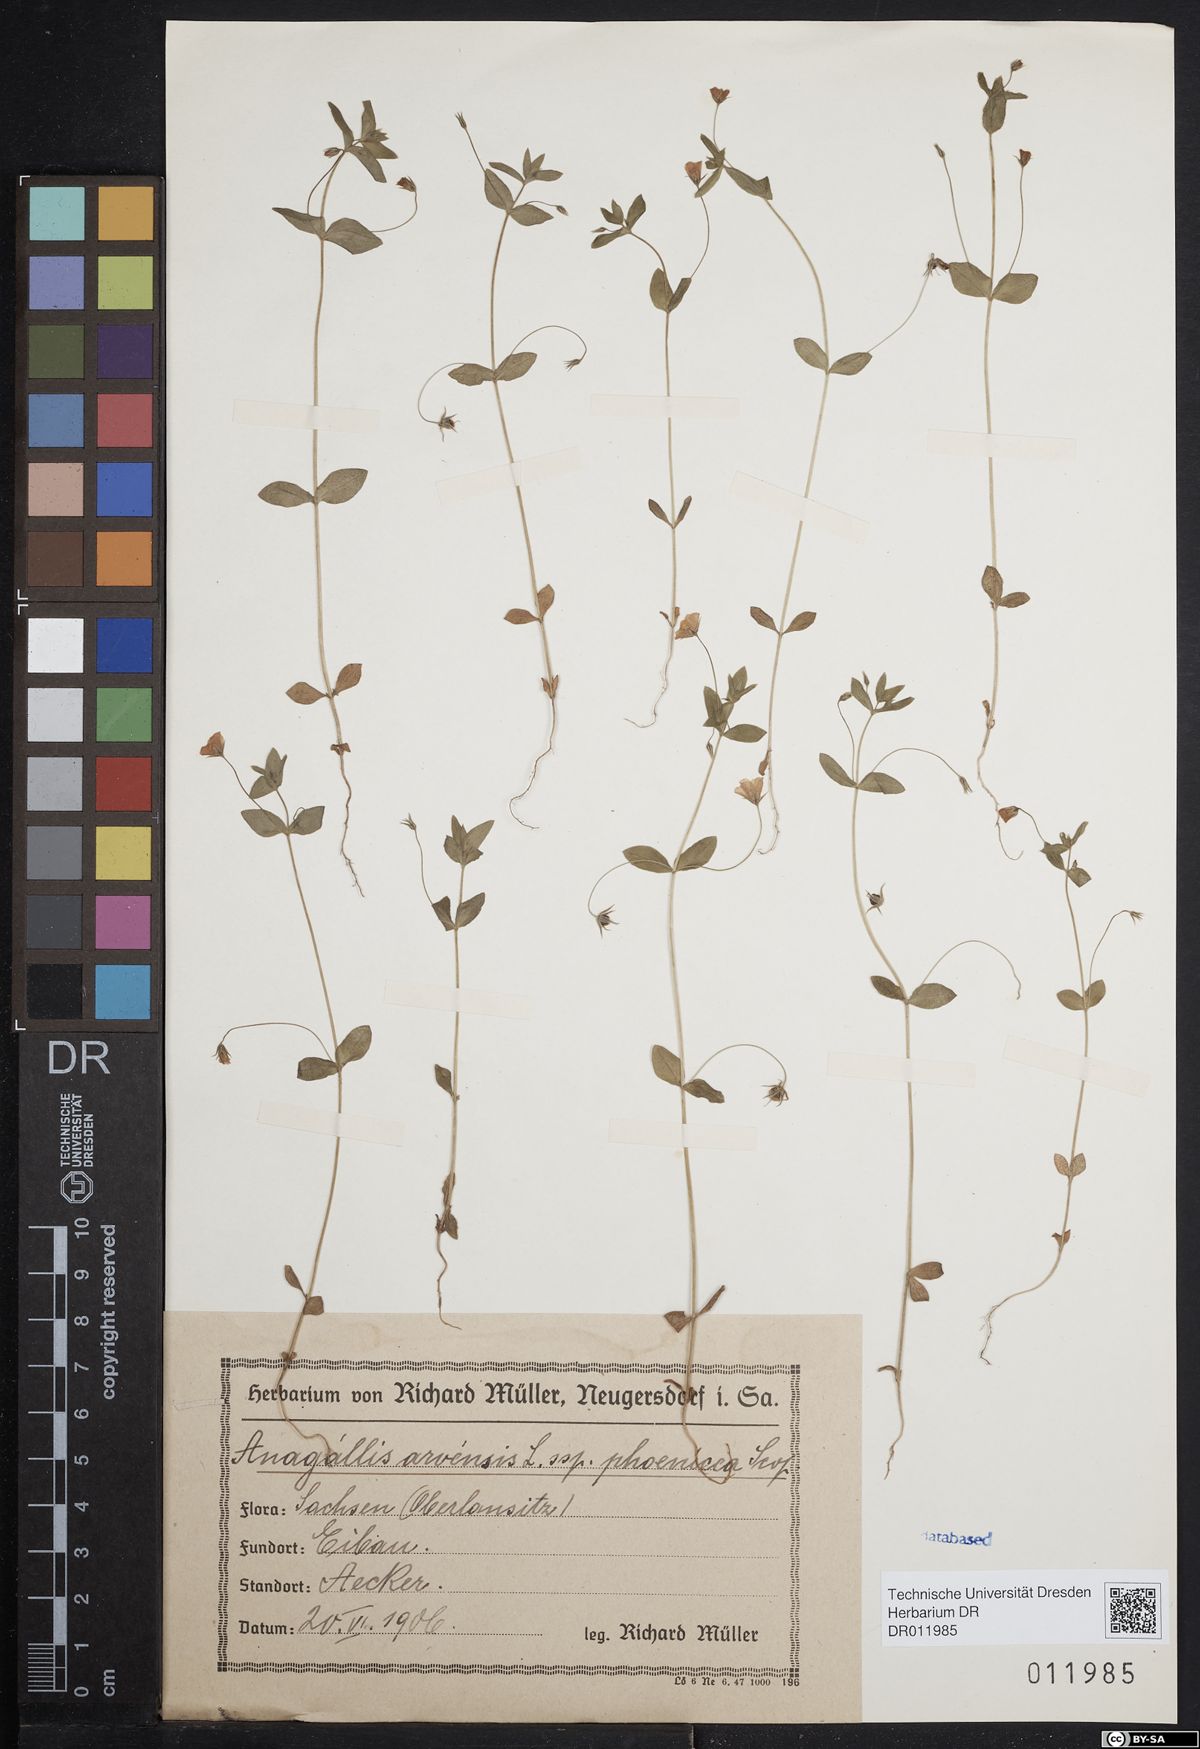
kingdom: Plantae
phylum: Tracheophyta
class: Magnoliopsida
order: Ericales
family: Primulaceae
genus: Lysimachia
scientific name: Lysimachia arvensis
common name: Scarlet pimpernel
